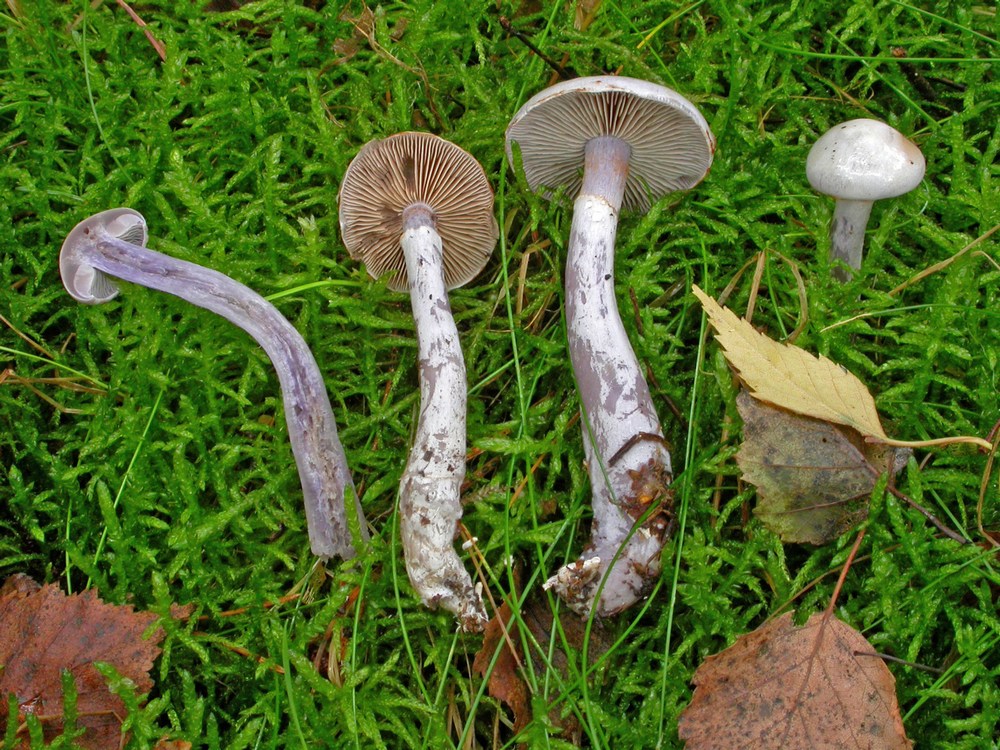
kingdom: Fungi
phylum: Basidiomycota
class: Agaricomycetes
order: Agaricales
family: Cortinariaceae
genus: Cortinarius
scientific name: Cortinarius acutispissipes
